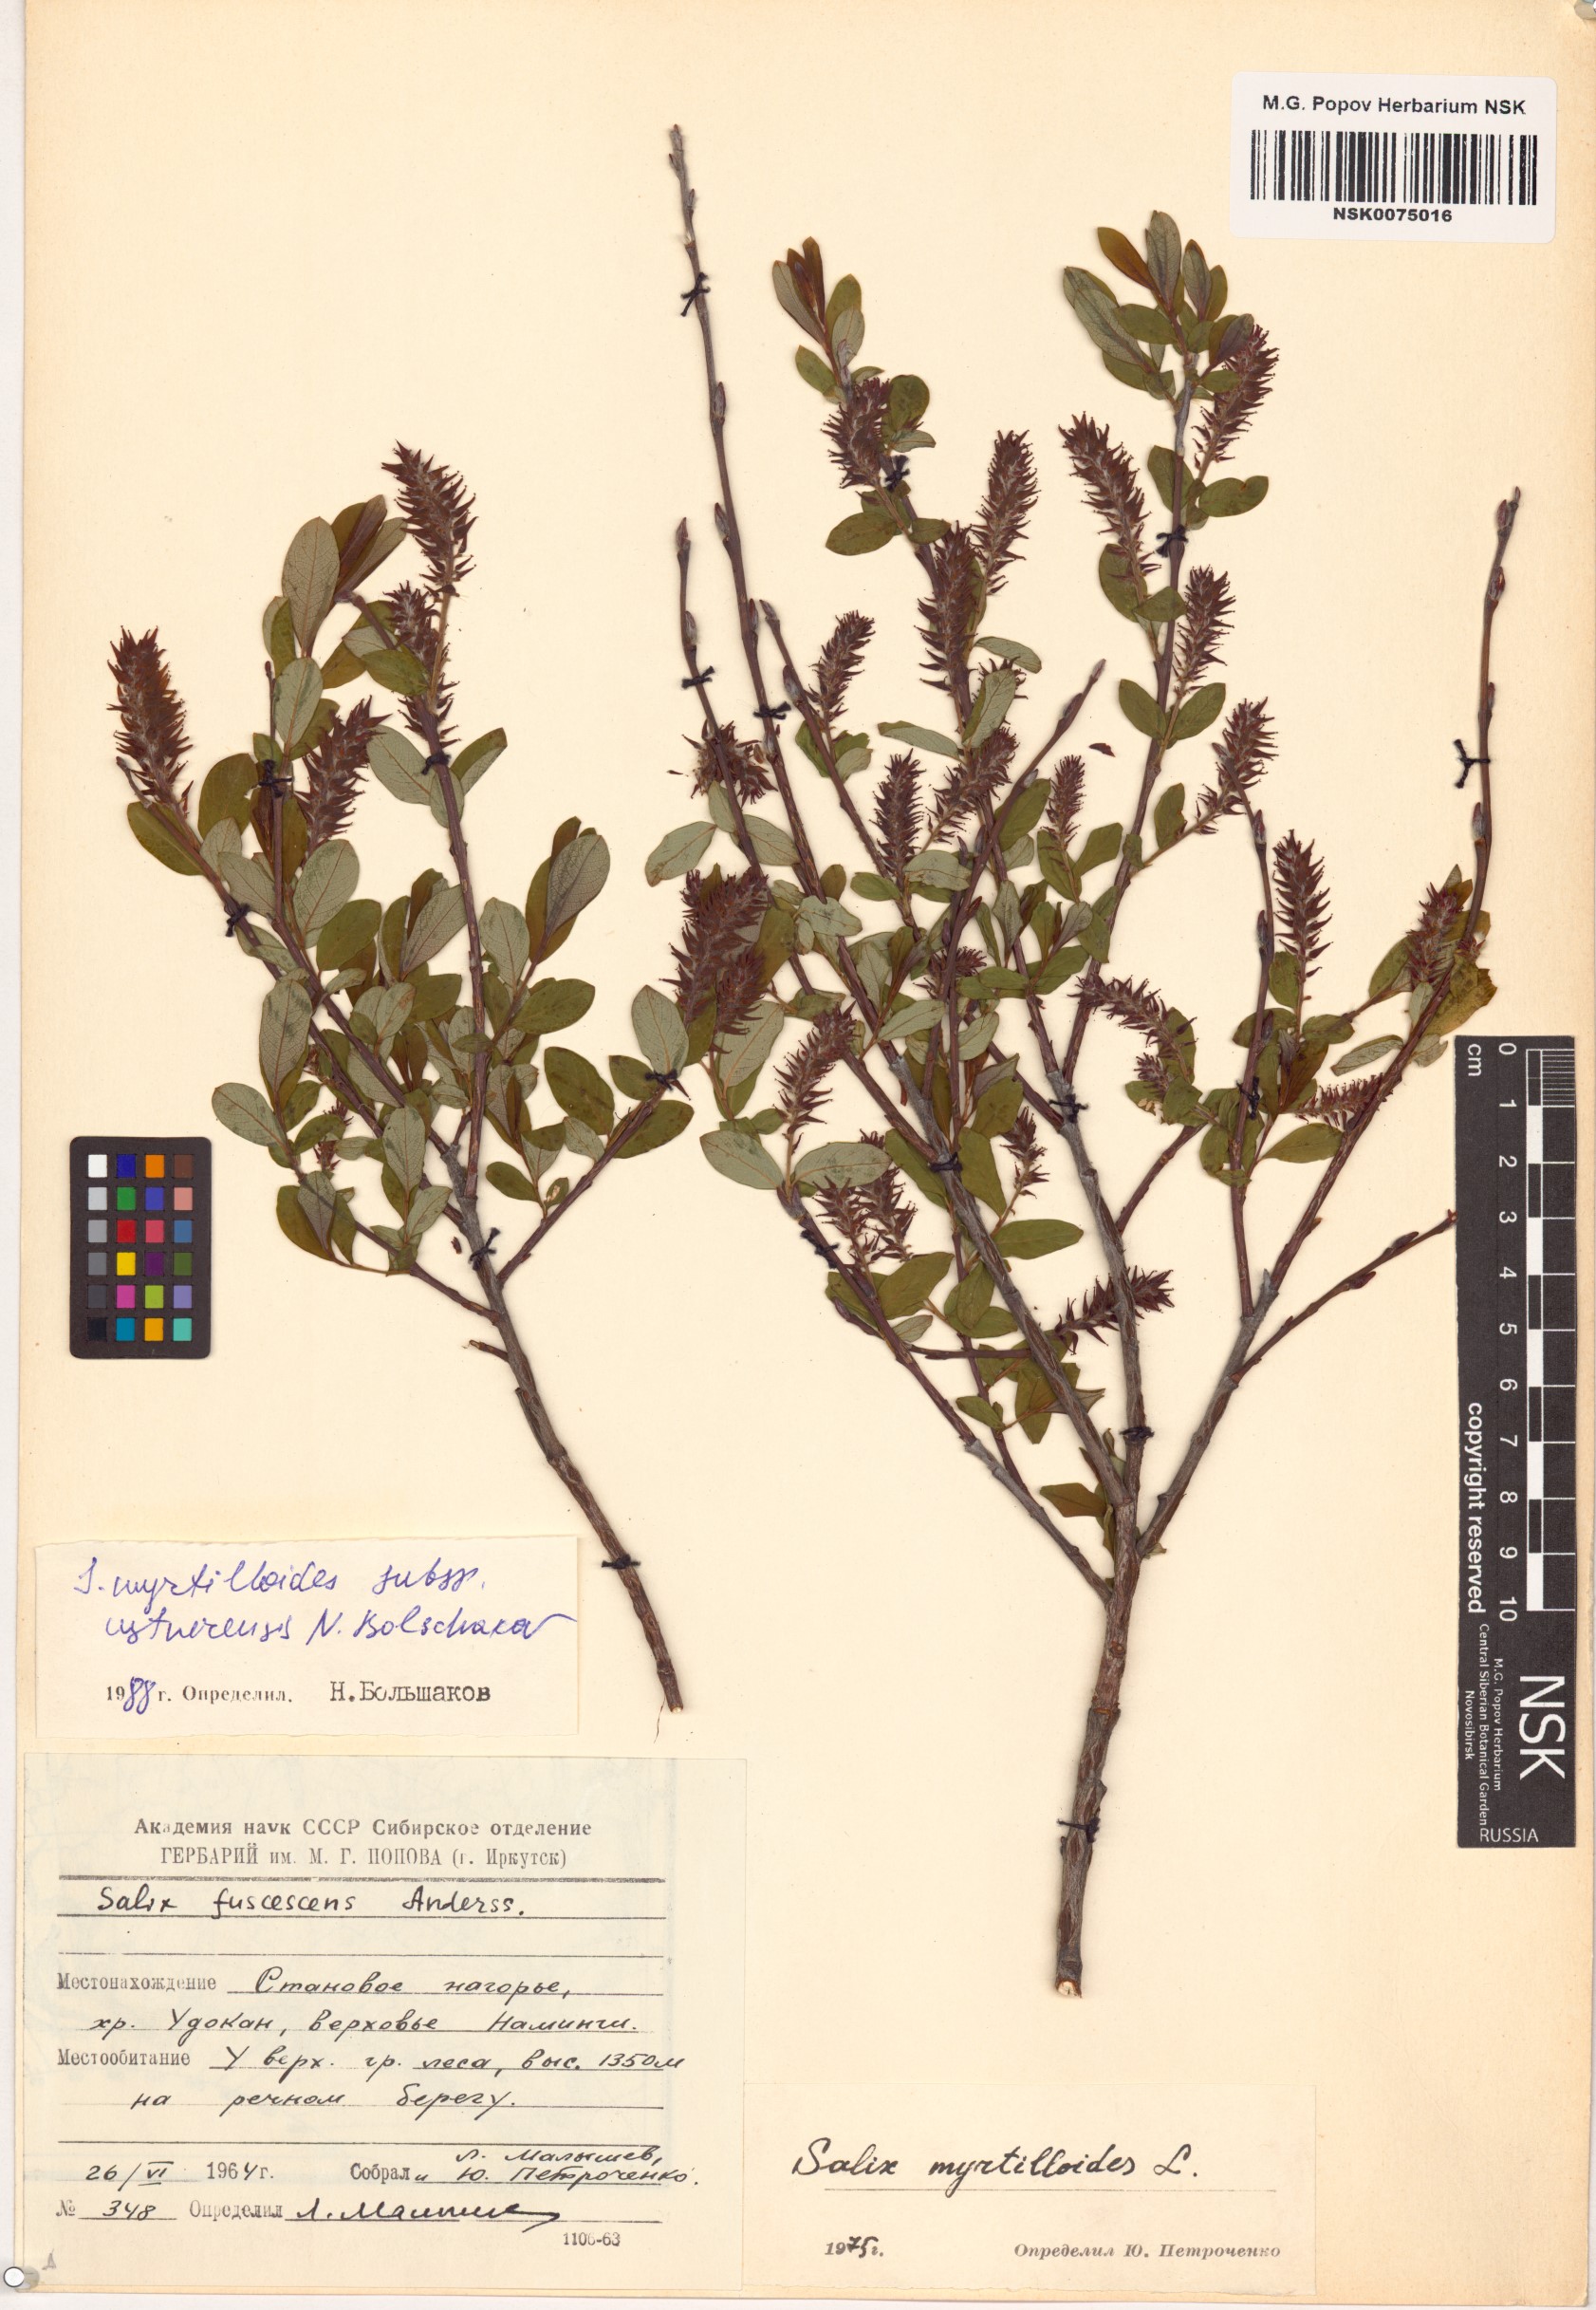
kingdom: Plantae
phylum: Tracheophyta
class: Magnoliopsida
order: Malpighiales
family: Salicaceae
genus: Salix
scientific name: Salix ustnerensis
